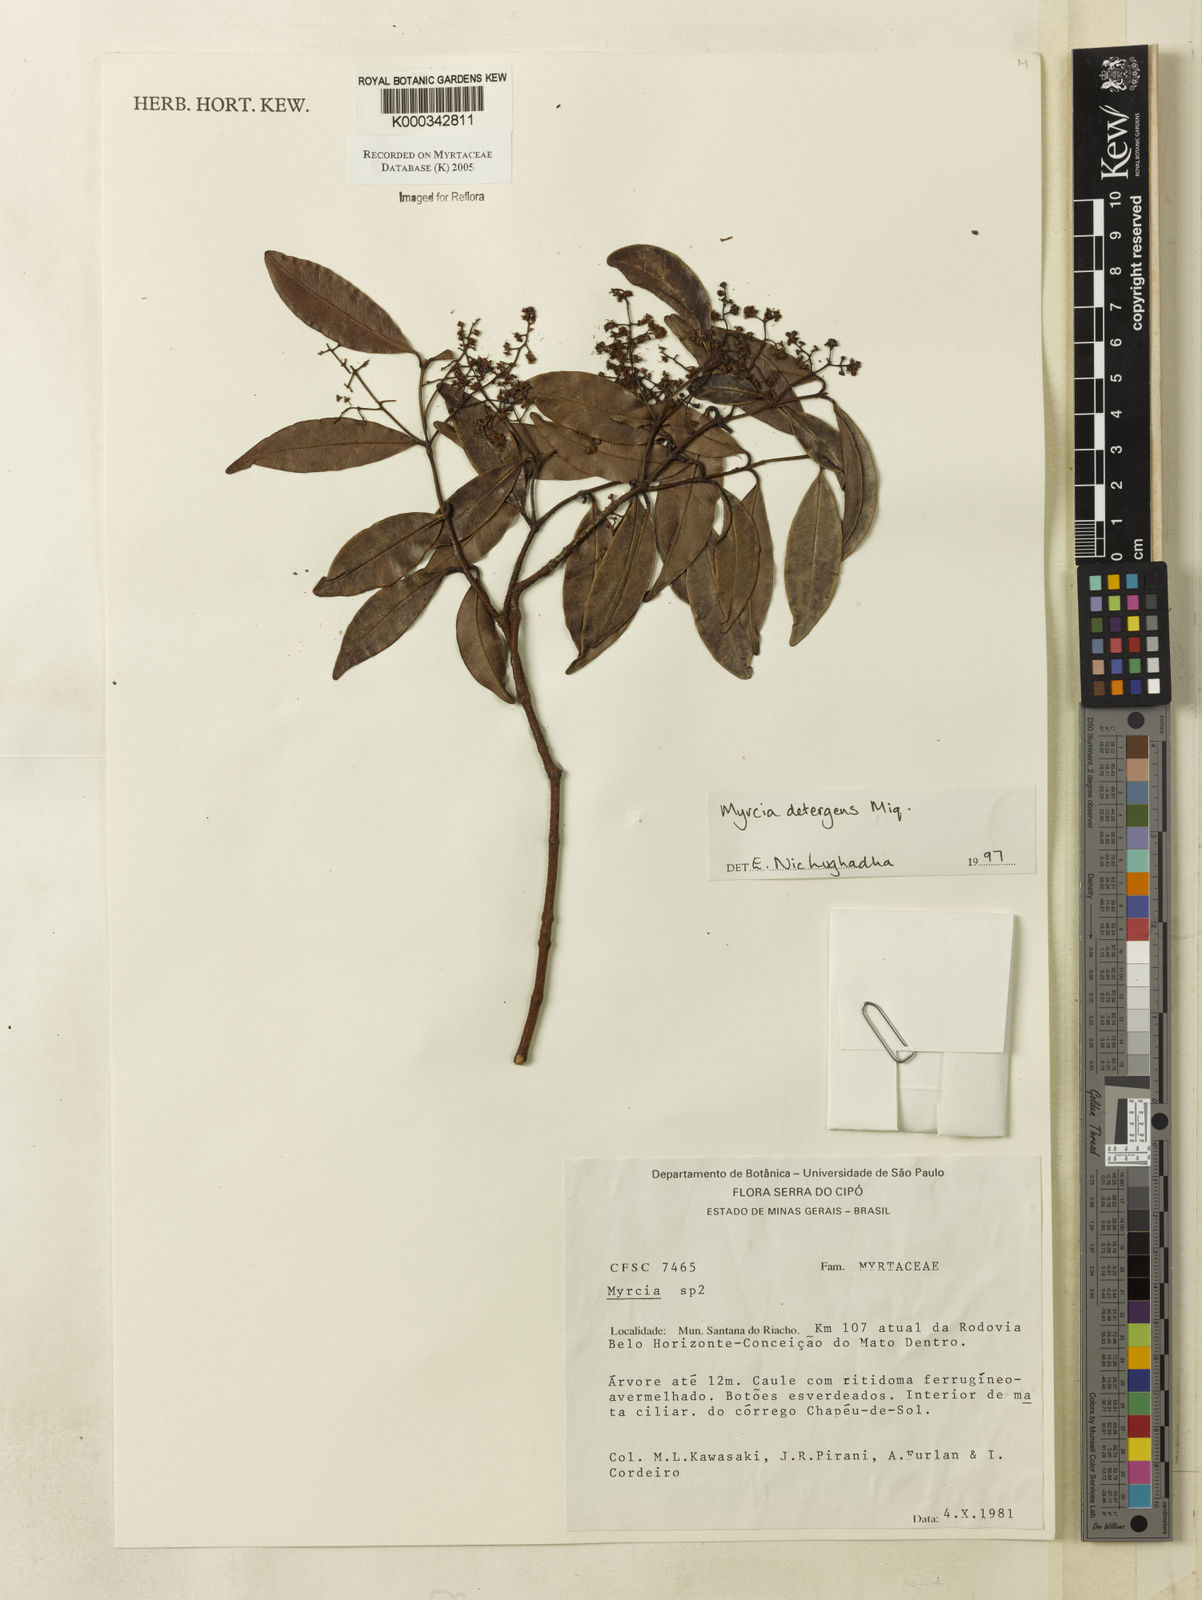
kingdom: Plantae
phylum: Tracheophyta
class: Magnoliopsida
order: Myrtales
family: Myrtaceae
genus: Myrcia
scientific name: Myrcia amazonica
